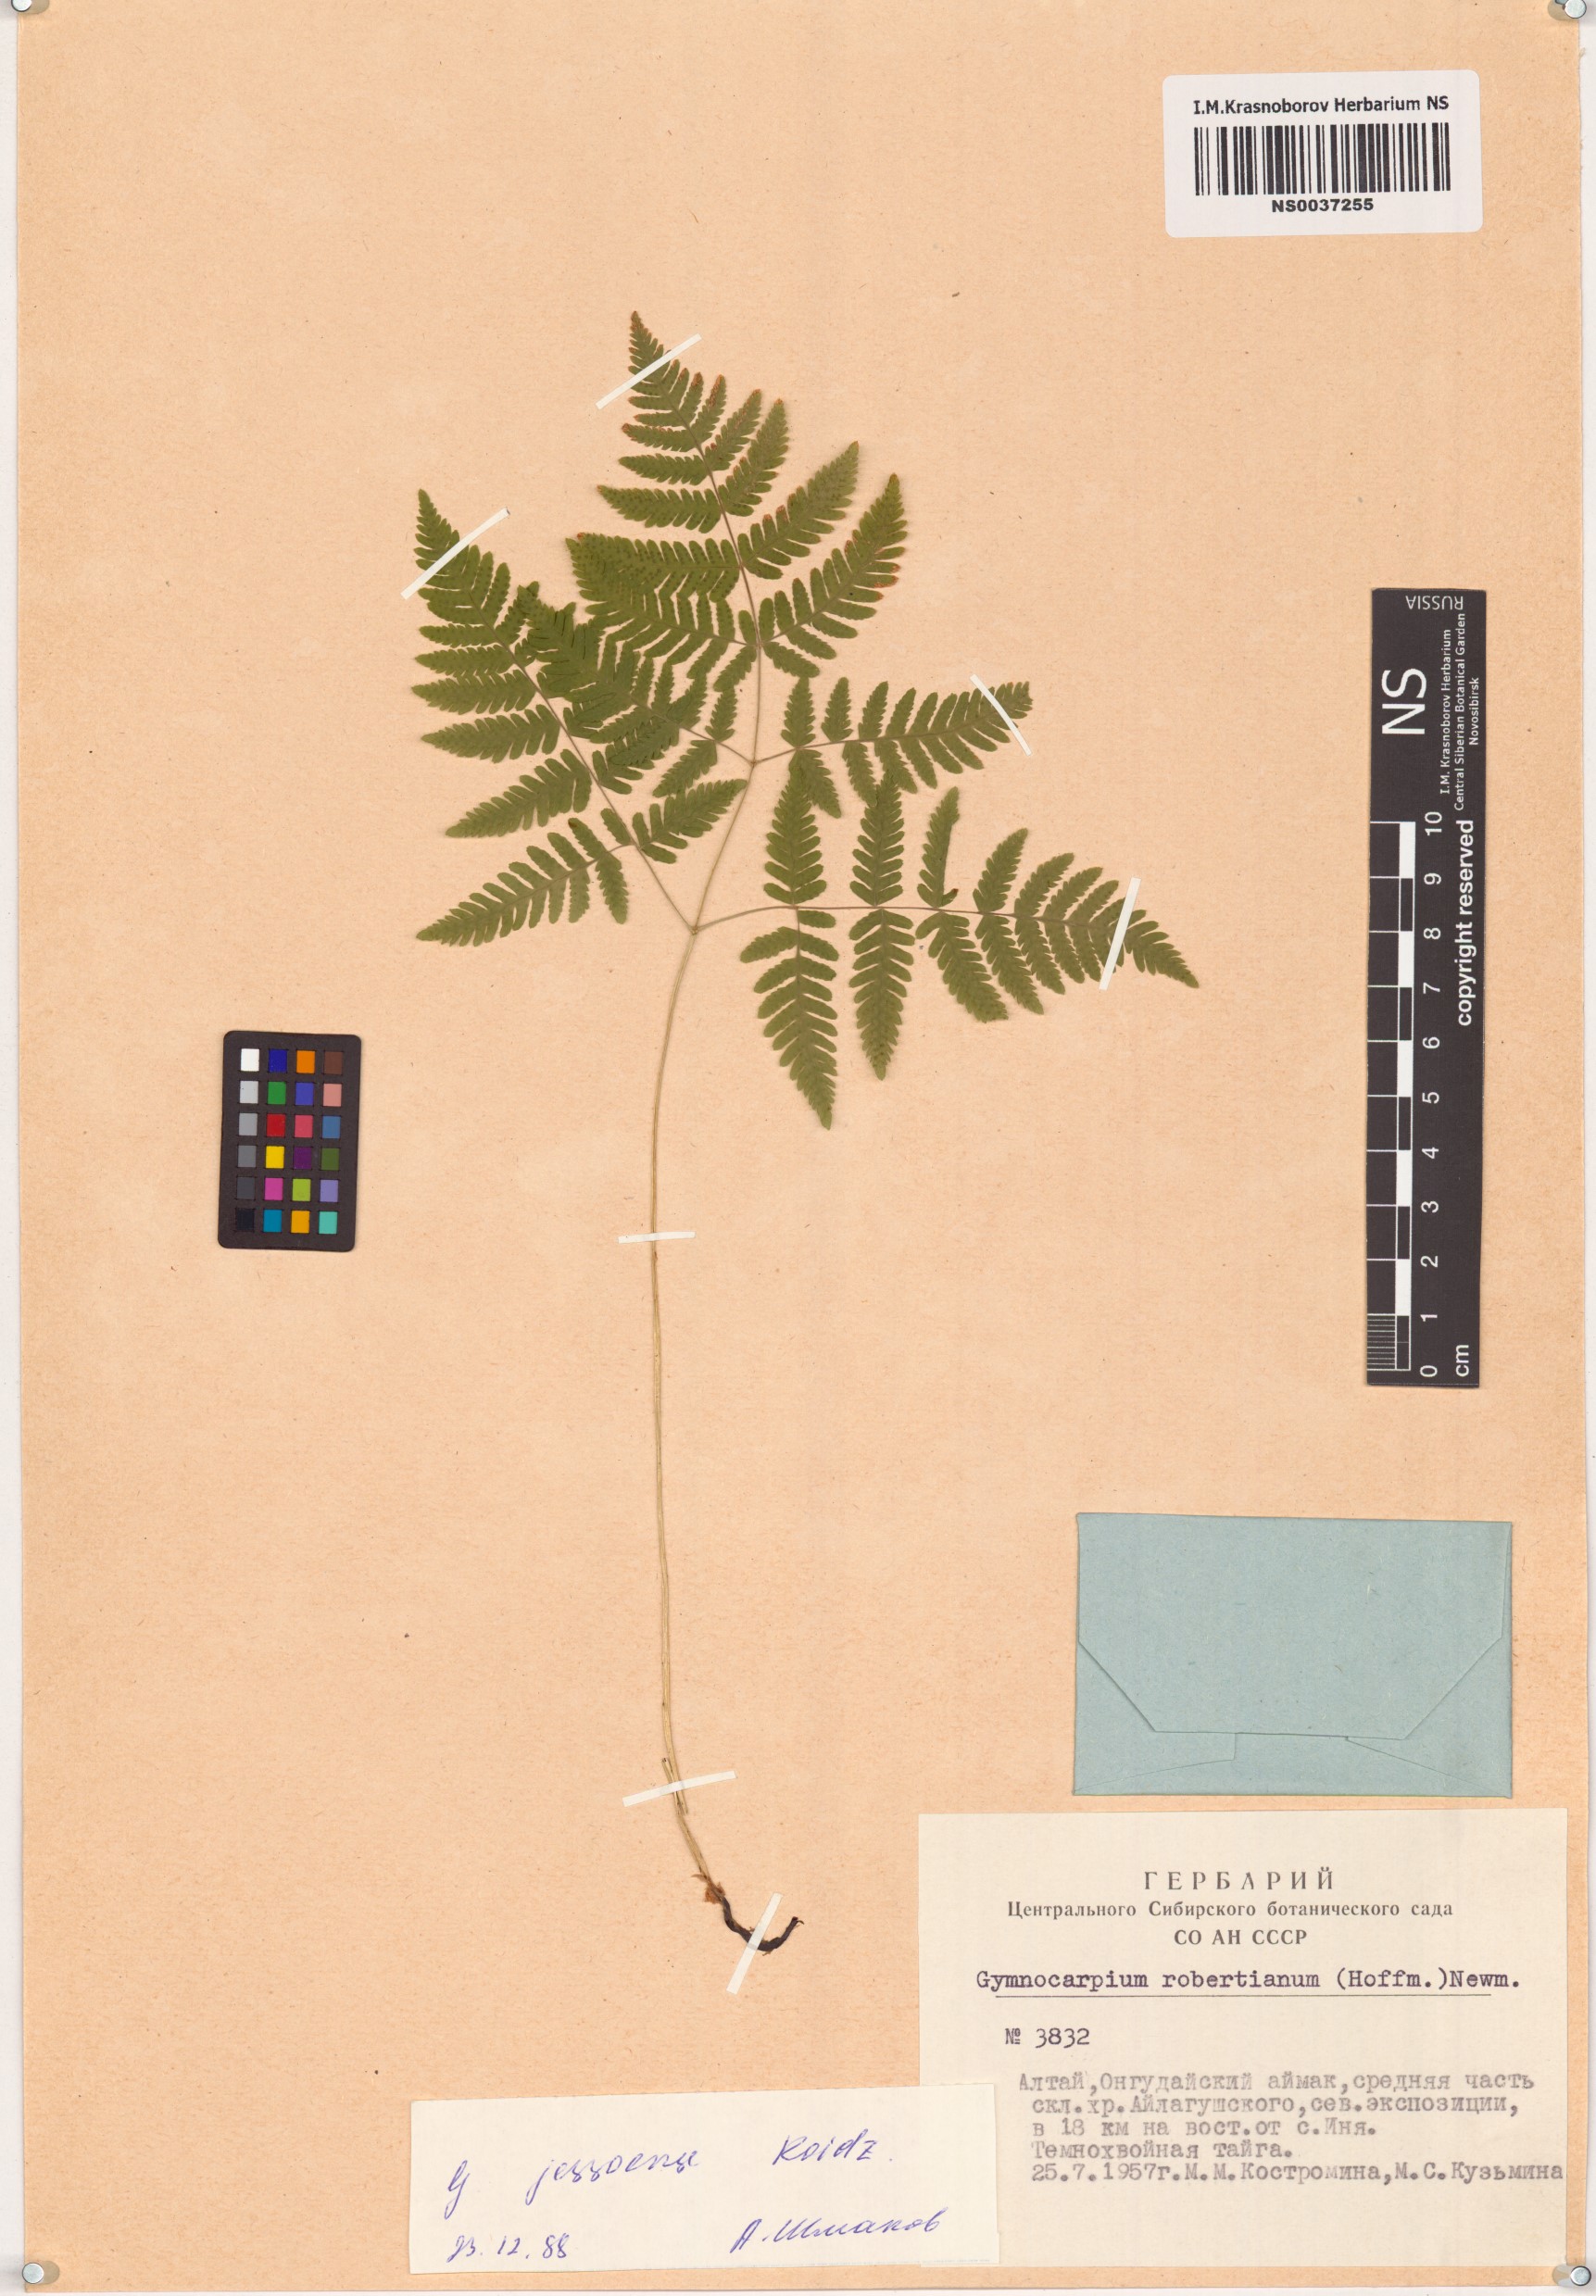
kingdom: Plantae
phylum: Tracheophyta
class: Polypodiopsida
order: Polypodiales
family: Cystopteridaceae
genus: Gymnocarpium
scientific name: Gymnocarpium jessoense
